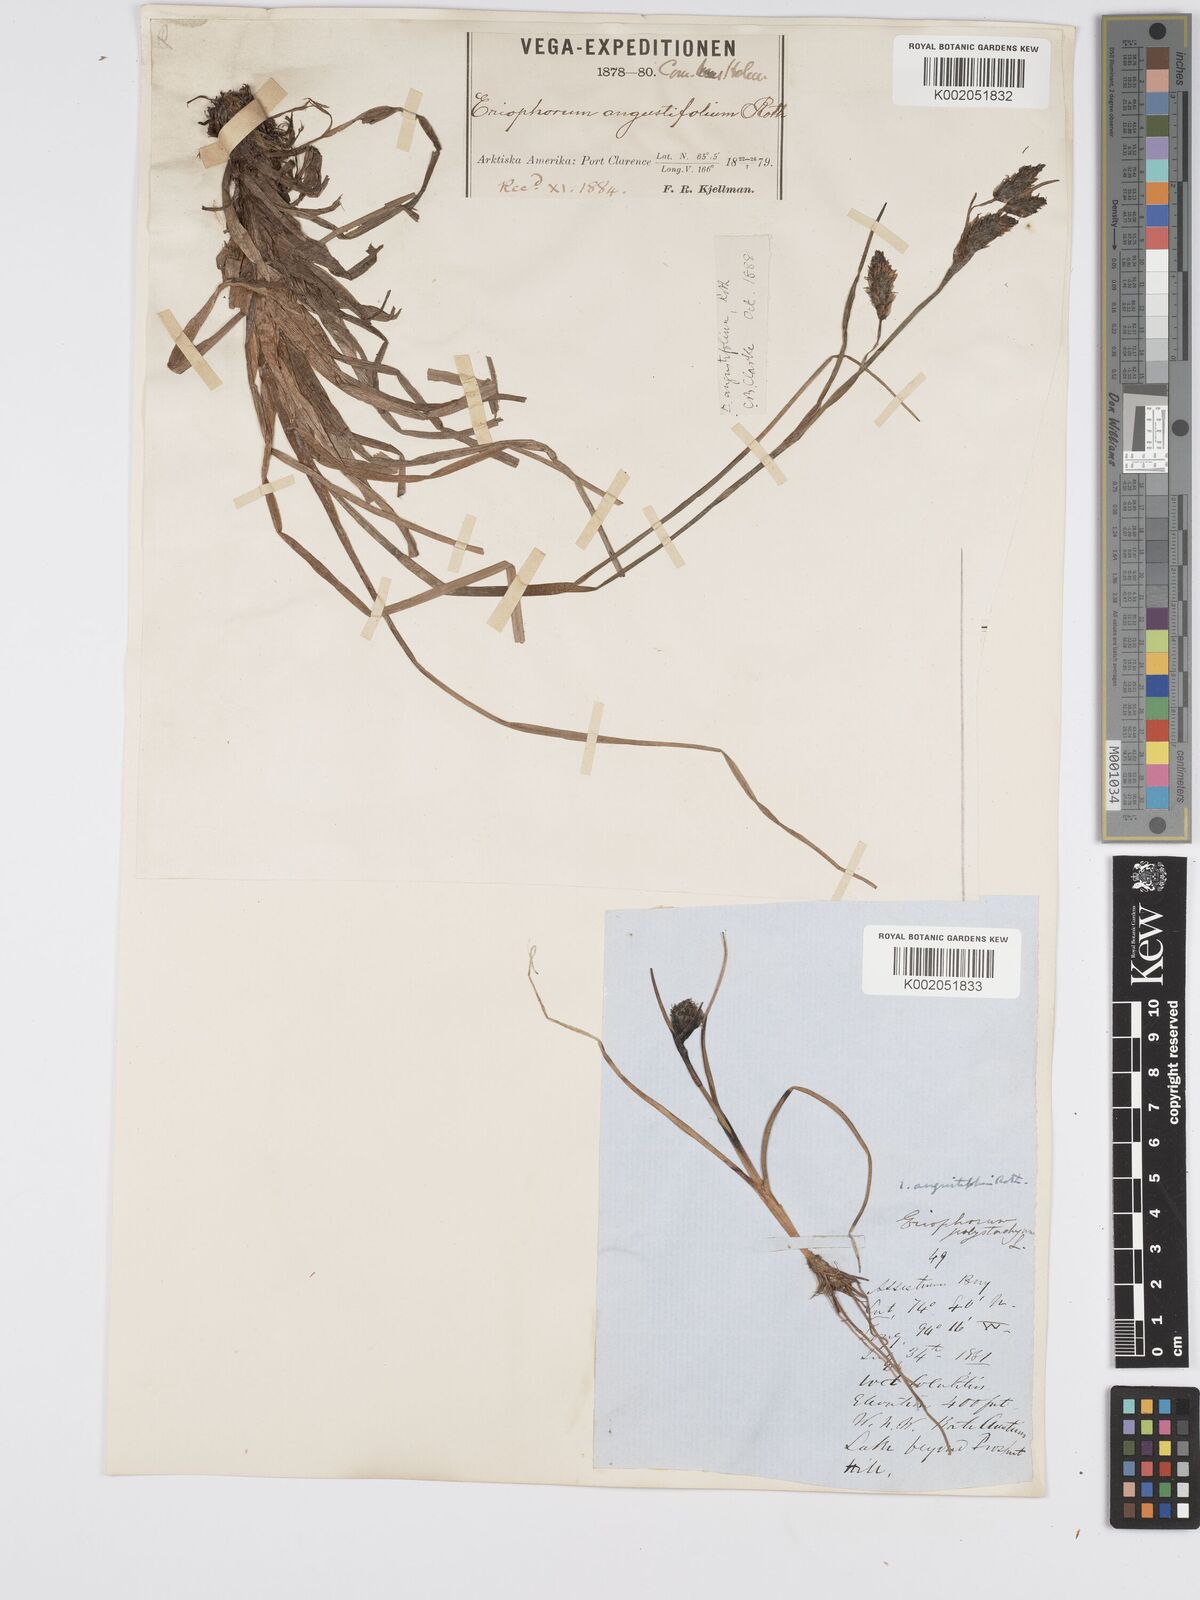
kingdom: Plantae
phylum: Tracheophyta
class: Liliopsida
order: Poales
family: Cyperaceae
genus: Eriophorum
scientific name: Eriophorum angustifolium
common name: Common cottongrass
